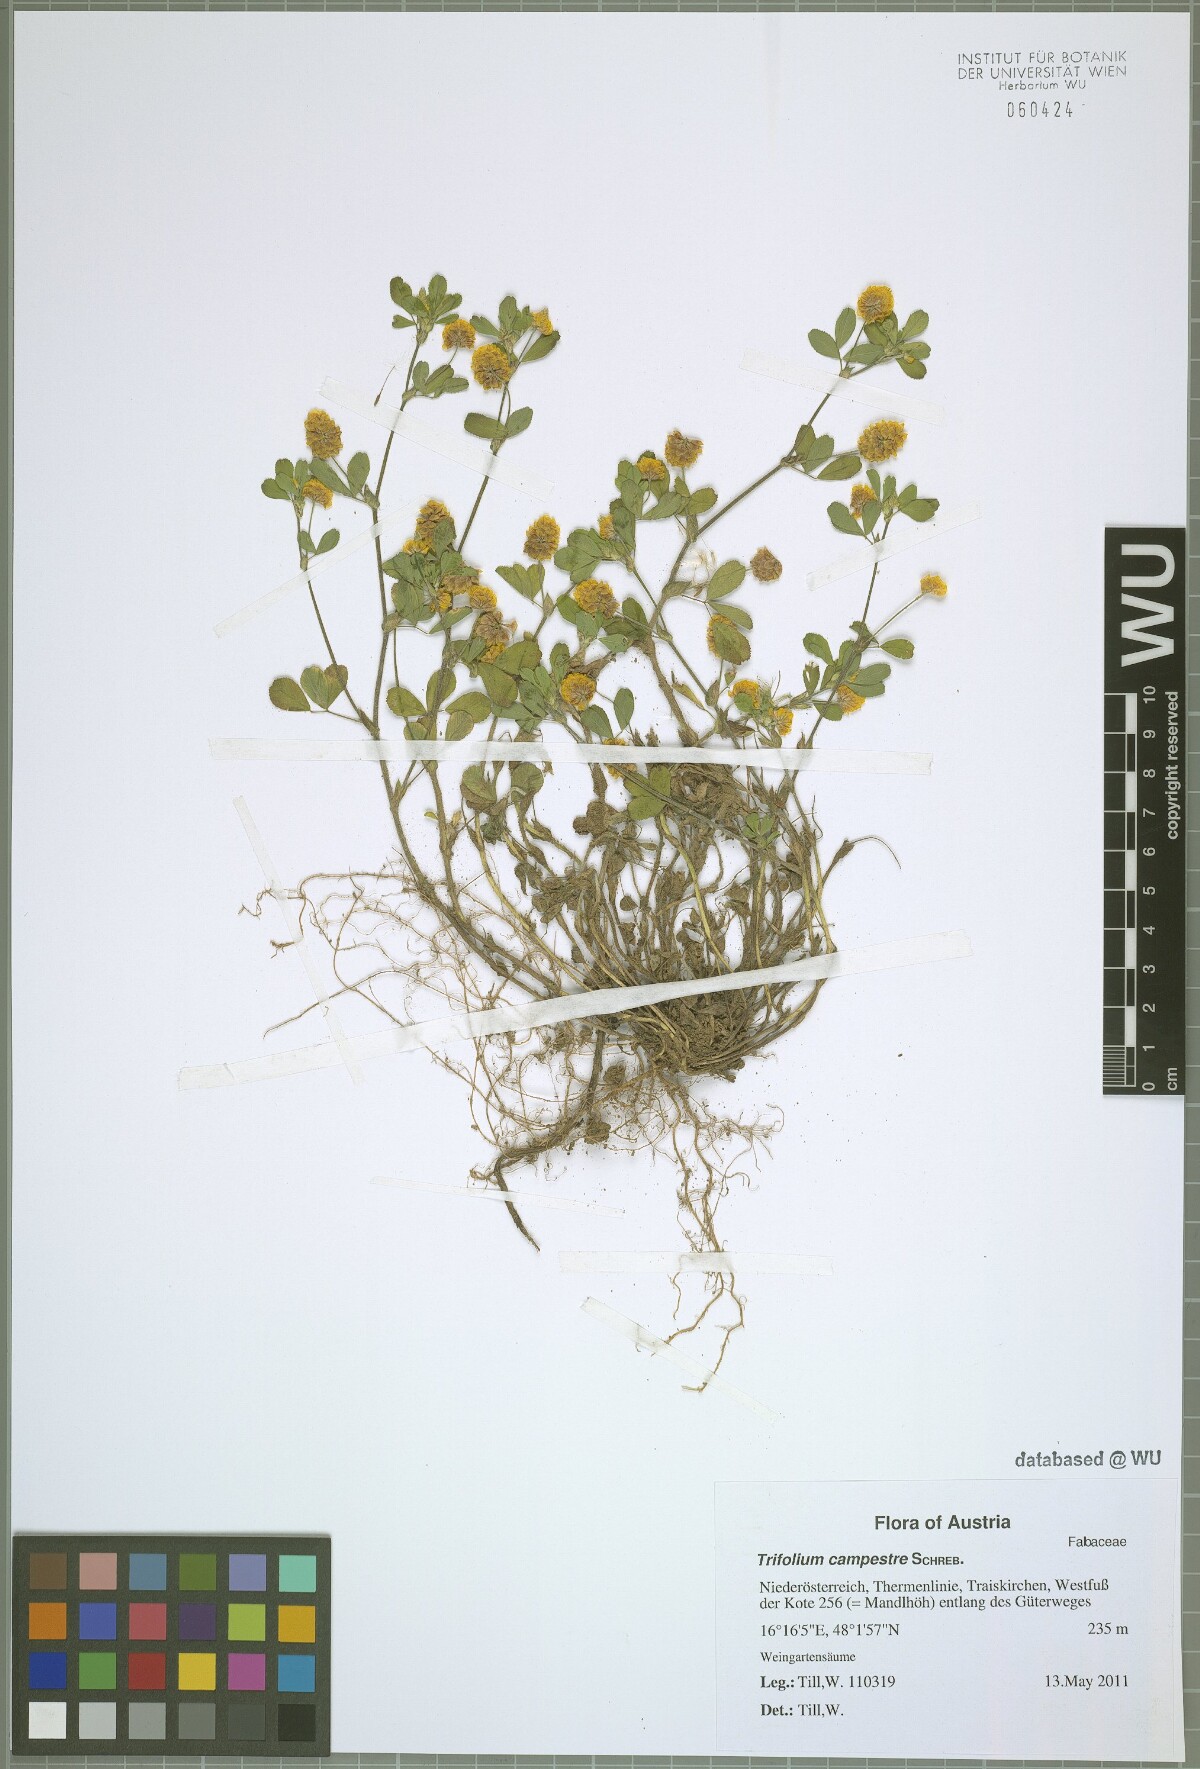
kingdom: Plantae
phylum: Tracheophyta
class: Magnoliopsida
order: Fabales
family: Fabaceae
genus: Trifolium
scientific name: Trifolium campestre
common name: Field clover
